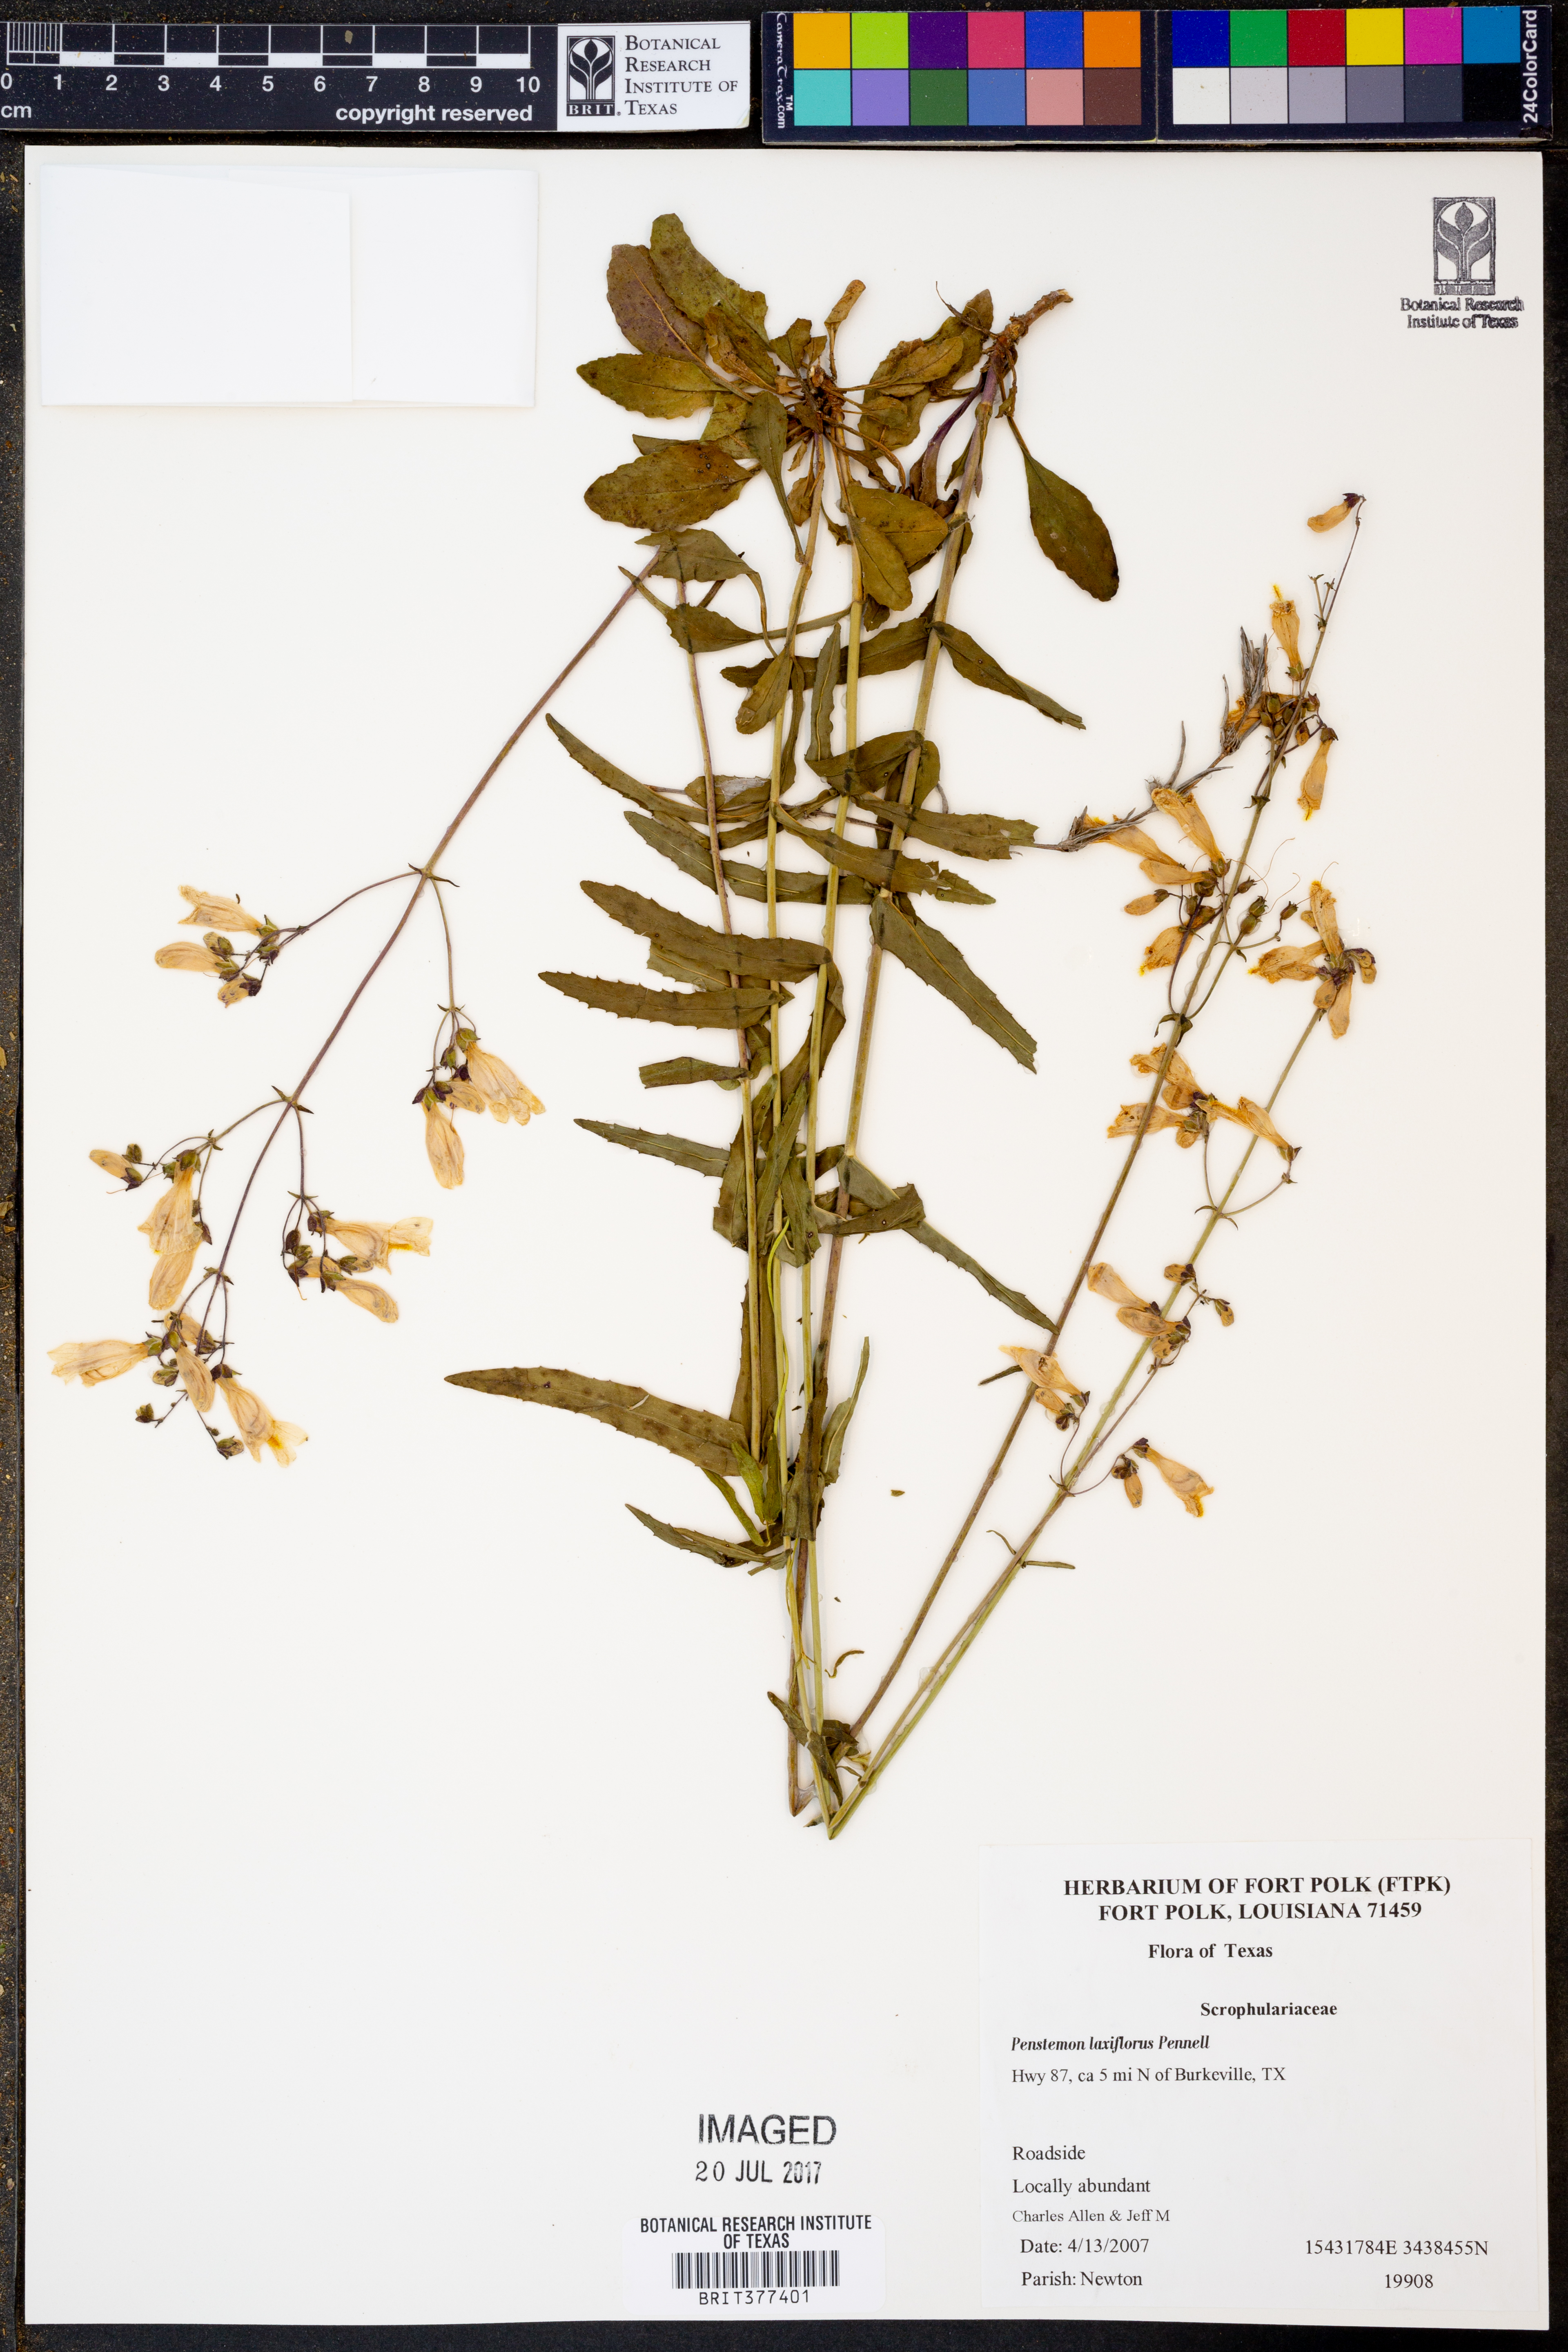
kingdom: Plantae
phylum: Tracheophyta
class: Magnoliopsida
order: Lamiales
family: Plantaginaceae
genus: Penstemon
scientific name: Penstemon laxiflorus
